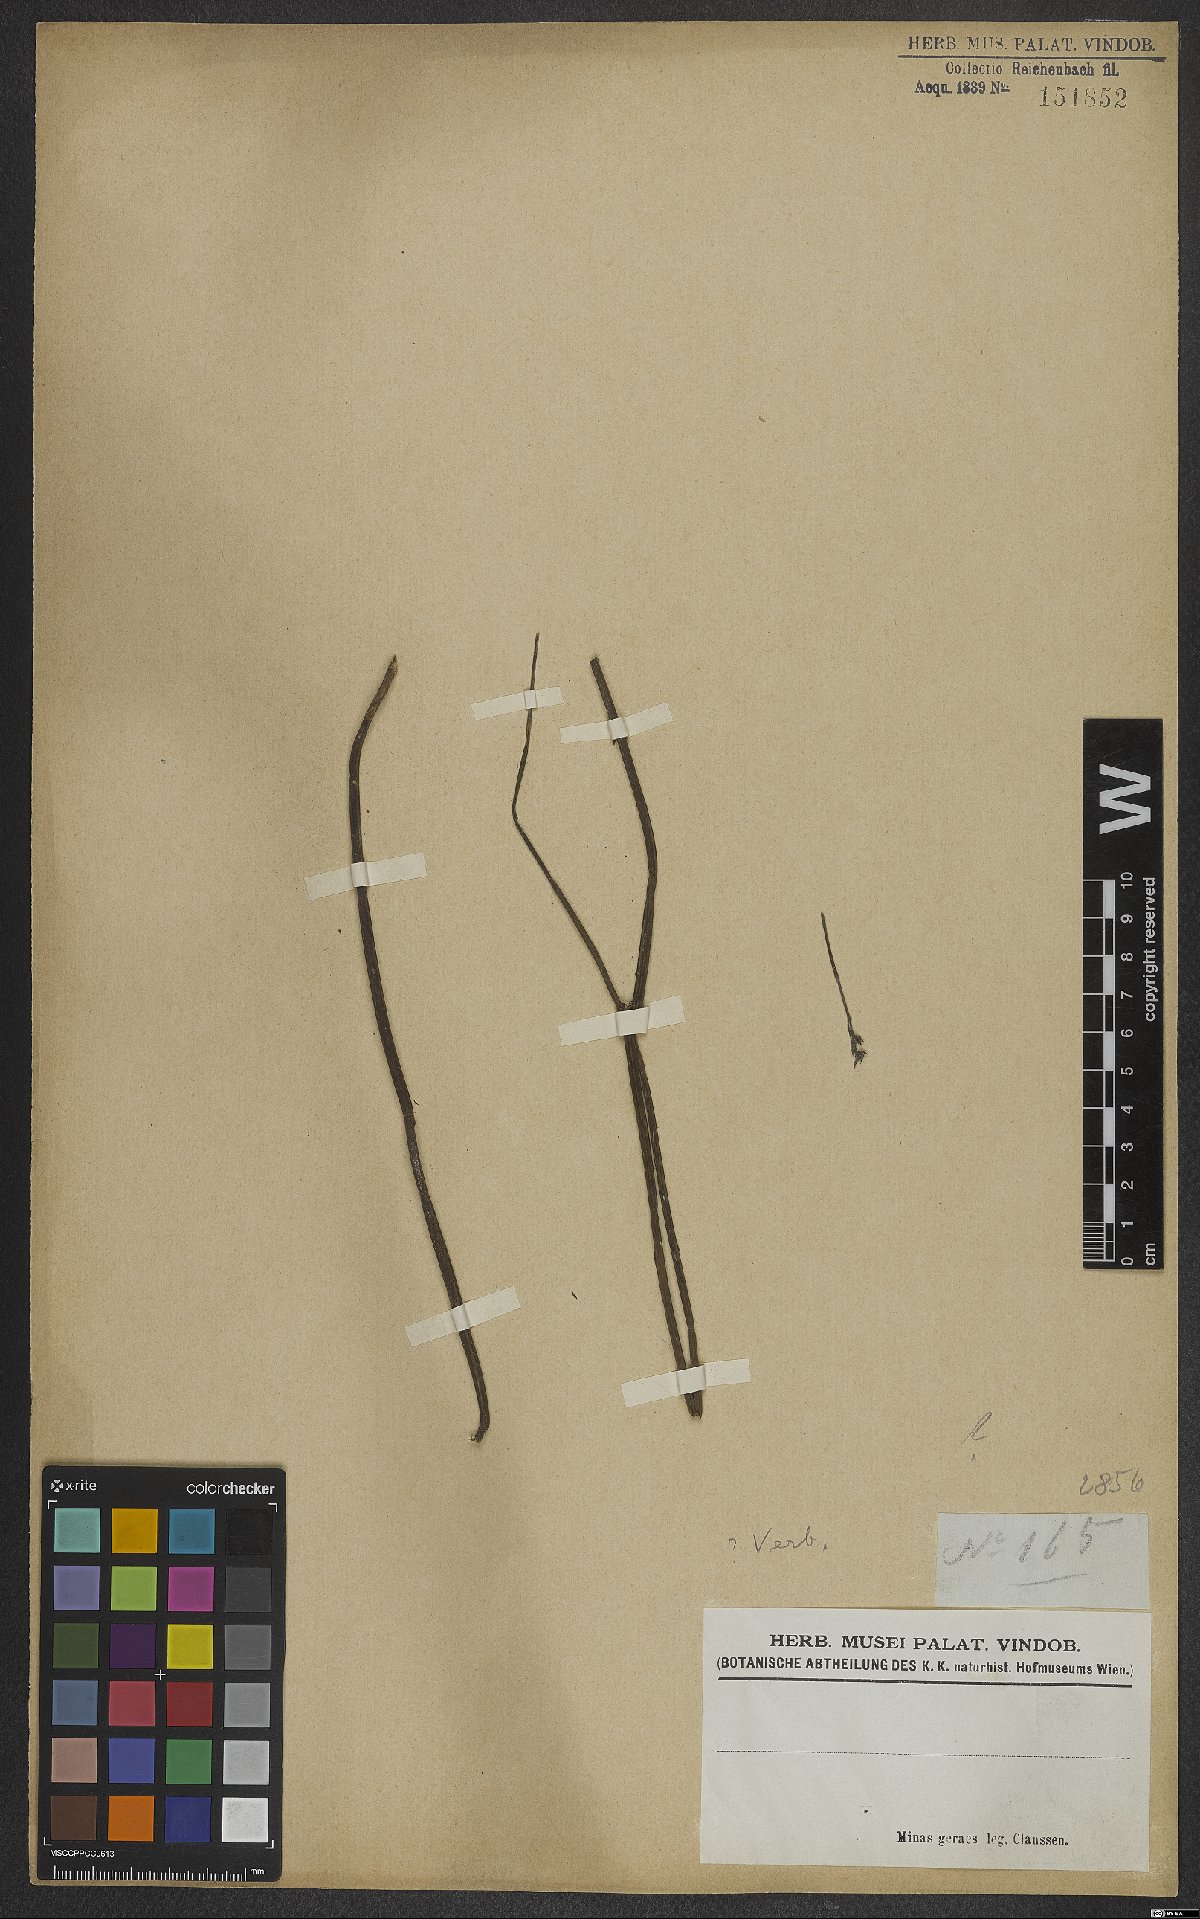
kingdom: Plantae
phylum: Tracheophyta
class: Magnoliopsida
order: Lamiales
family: Verbenaceae
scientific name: Verbenaceae
